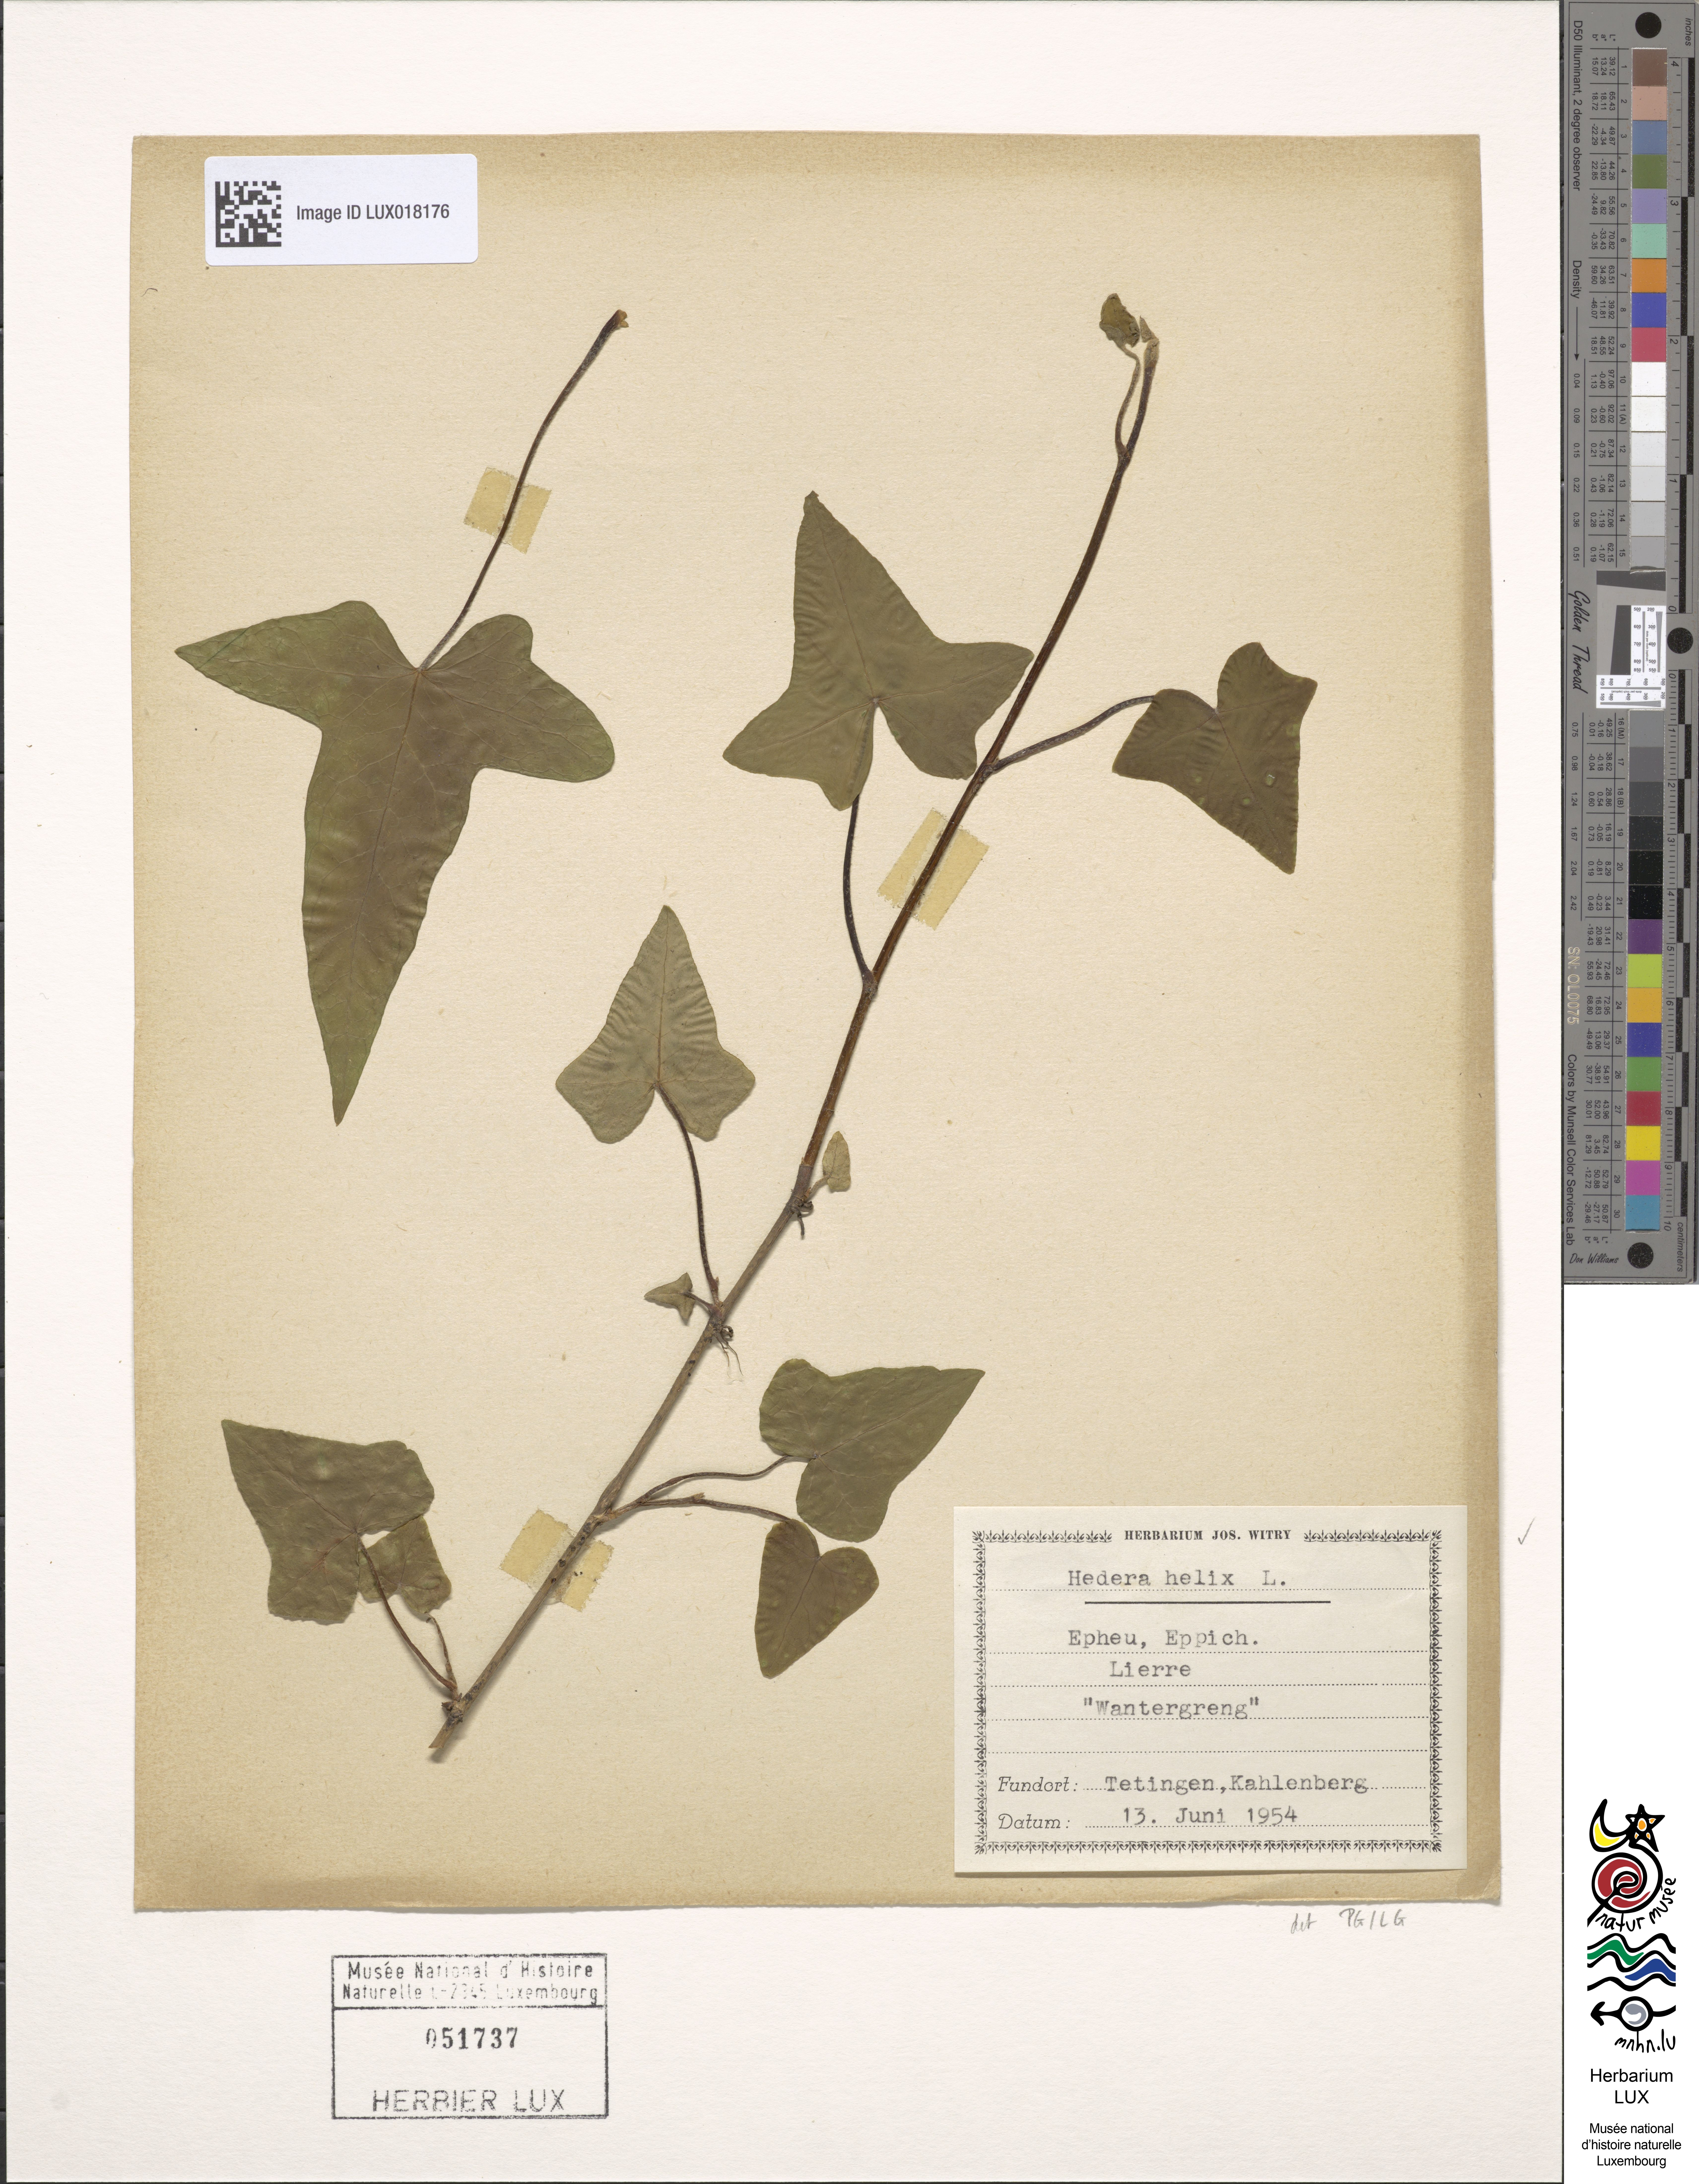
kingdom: Plantae
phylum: Tracheophyta
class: Magnoliopsida
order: Apiales
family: Araliaceae
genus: Hedera
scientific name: Hedera helix
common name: Ivy
